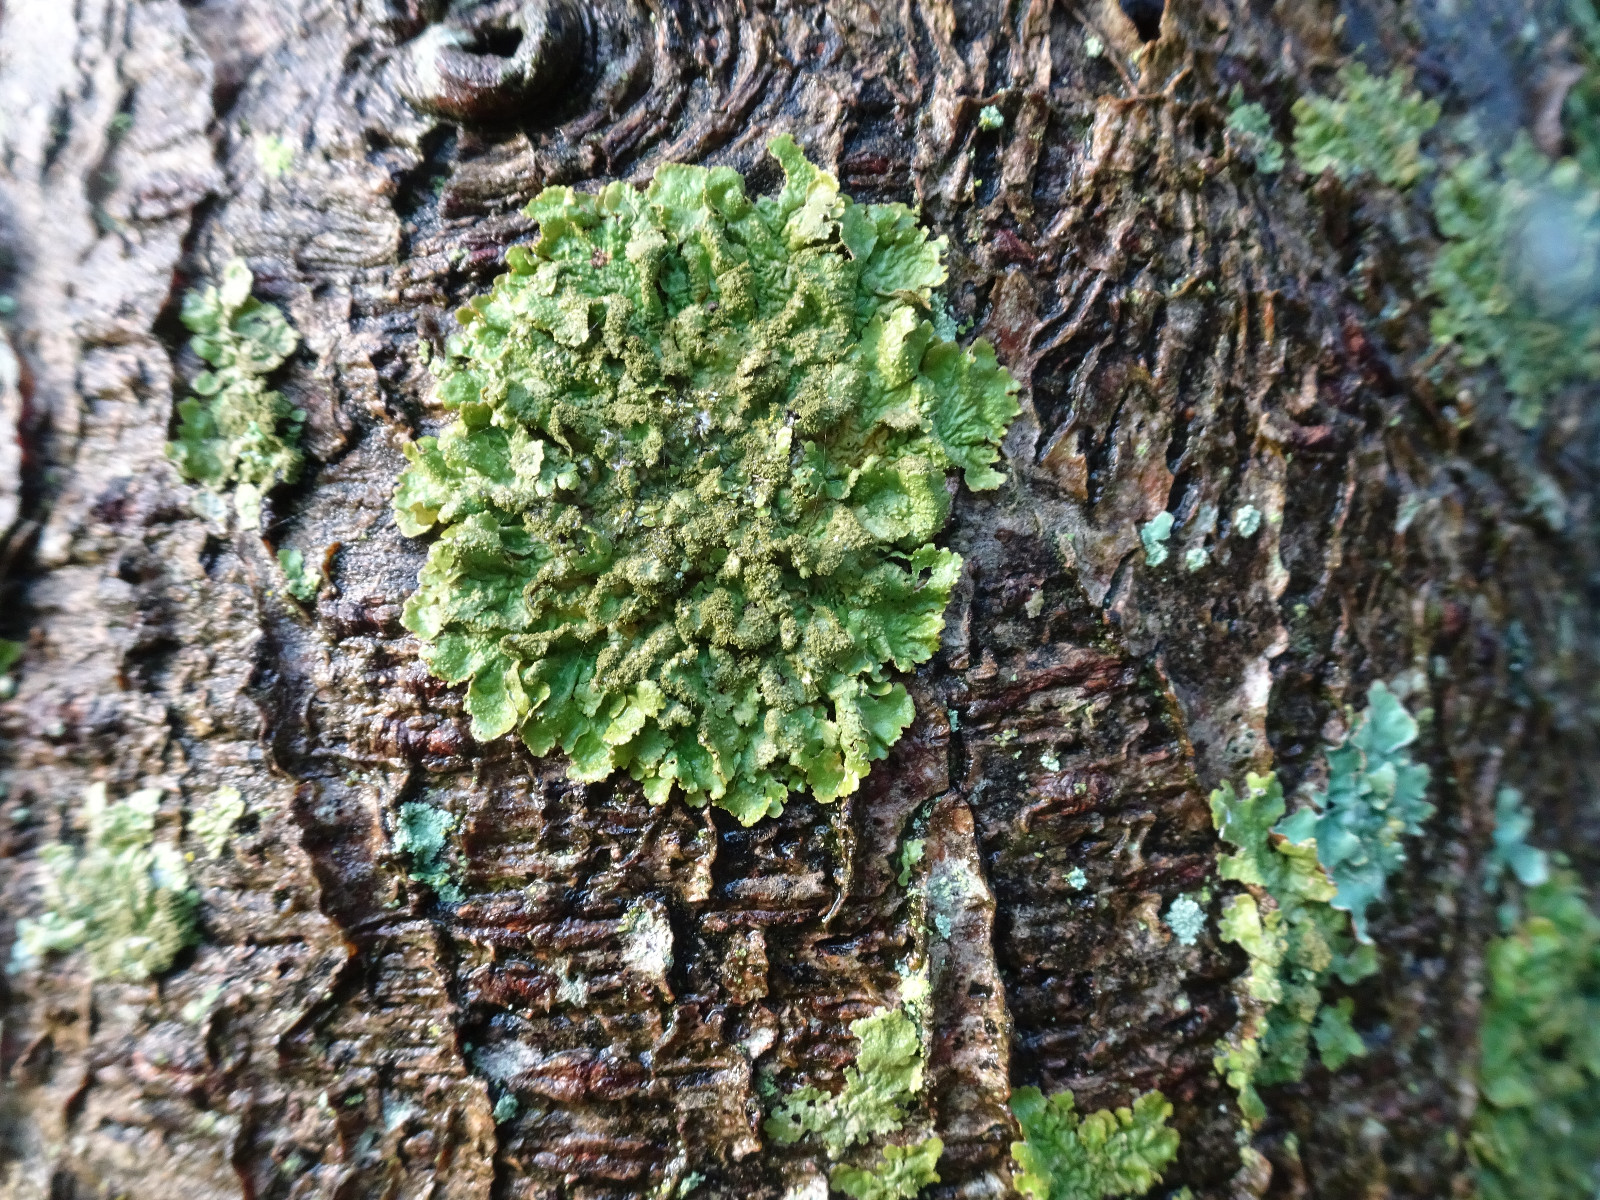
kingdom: Fungi
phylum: Ascomycota
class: Lecanoromycetes
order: Lecanorales
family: Parmeliaceae
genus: Melanelixia
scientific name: Melanelixia glabratula
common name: glinsende skållav
